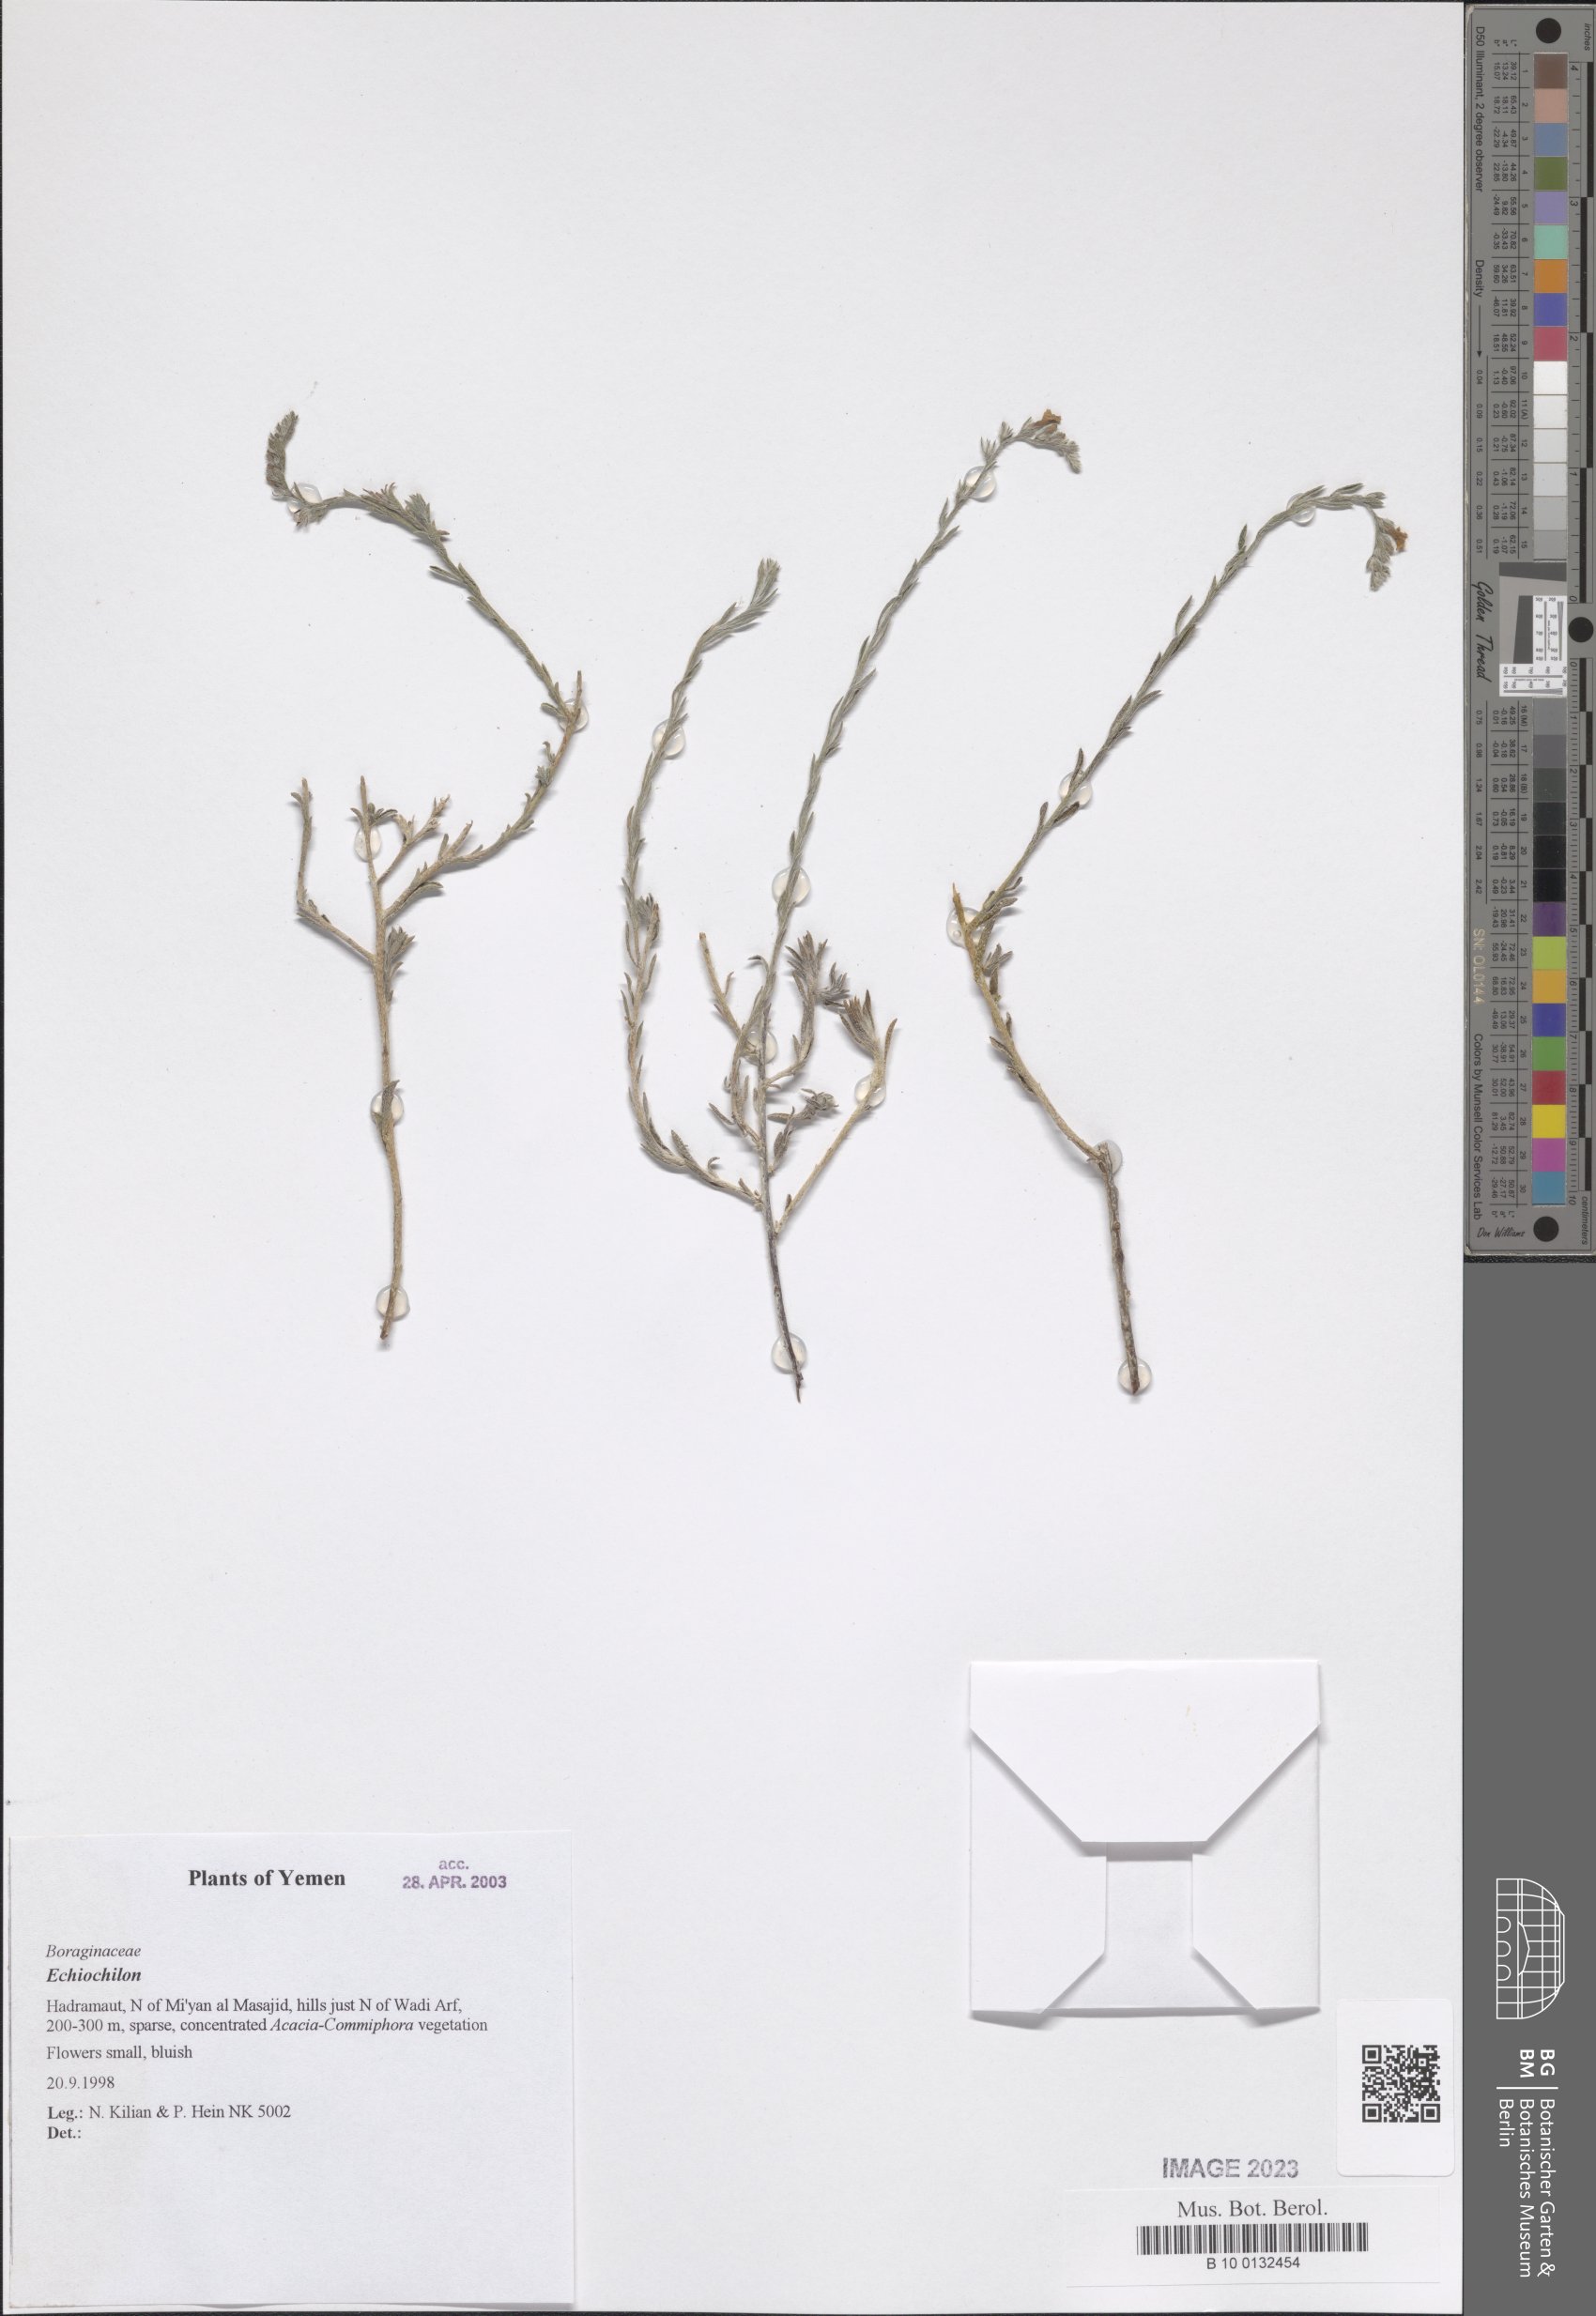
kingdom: Plantae
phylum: Tracheophyta
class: Magnoliopsida
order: Boraginales
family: Boraginaceae
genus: Echiochilon
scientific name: Echiochilon
